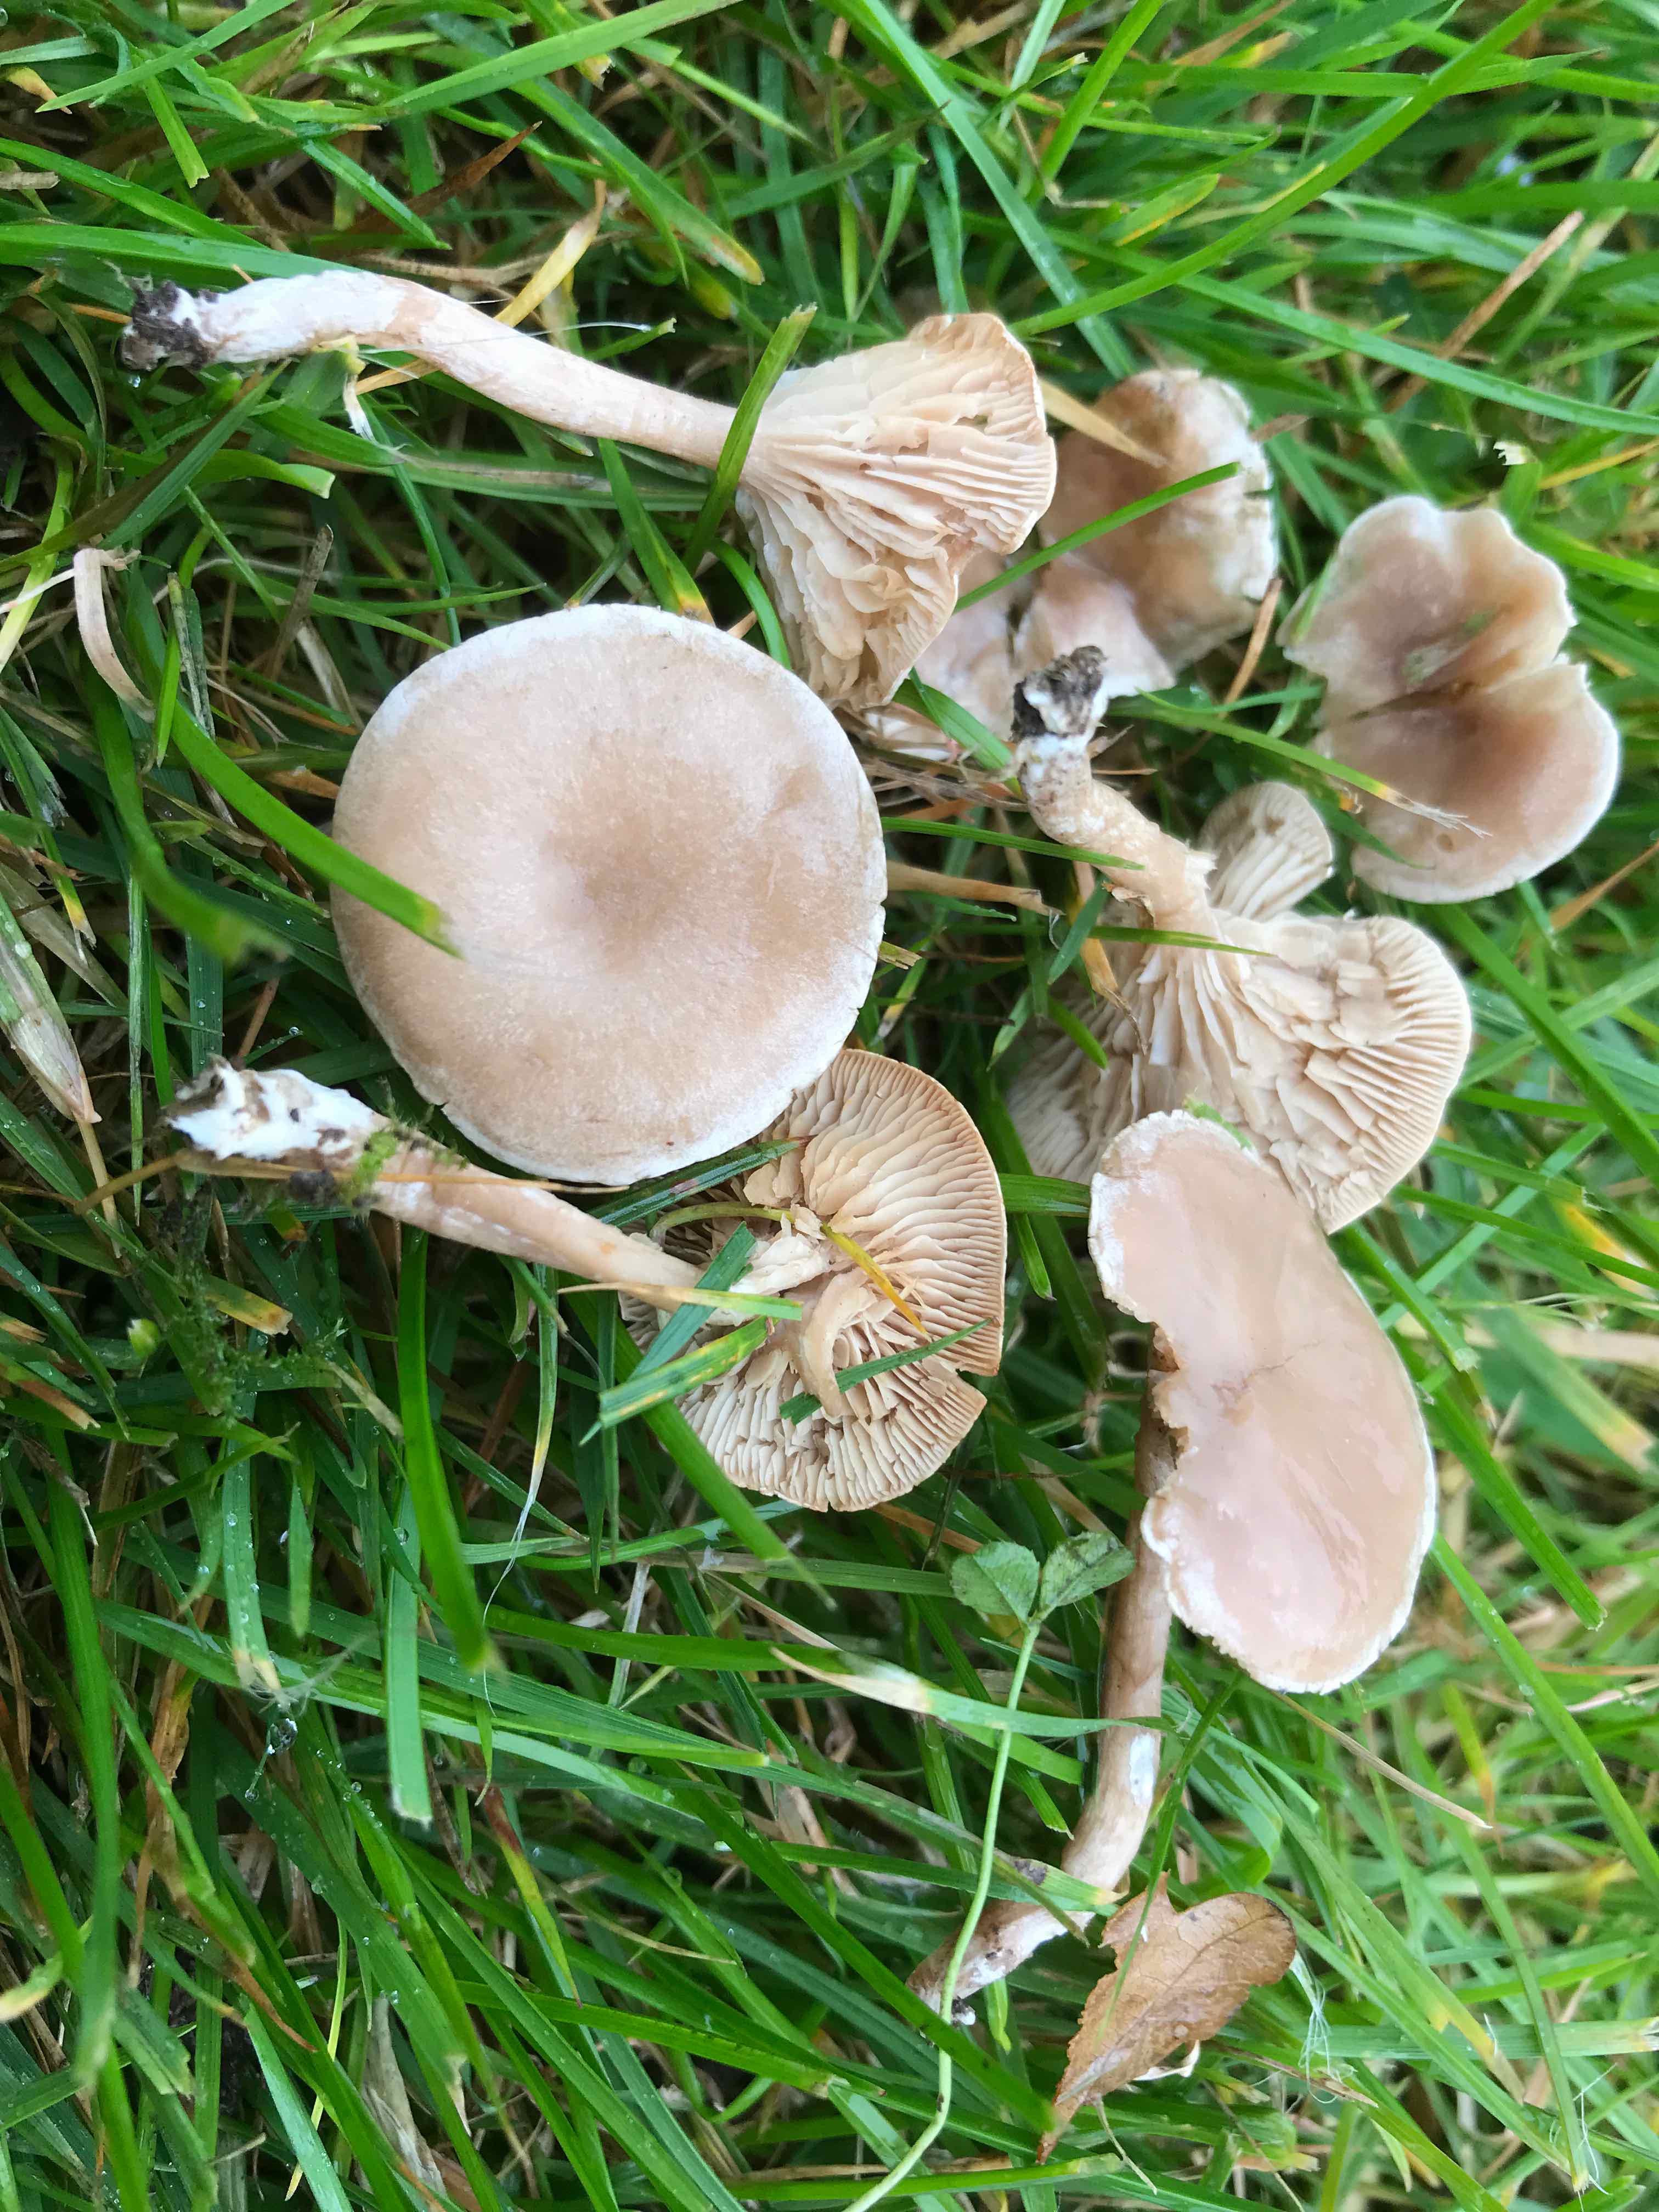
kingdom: Fungi
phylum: Basidiomycota
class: Agaricomycetes
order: Agaricales
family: Tricholomataceae
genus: Clitocybe
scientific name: Clitocybe rivulosa
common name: eng-tragthat
